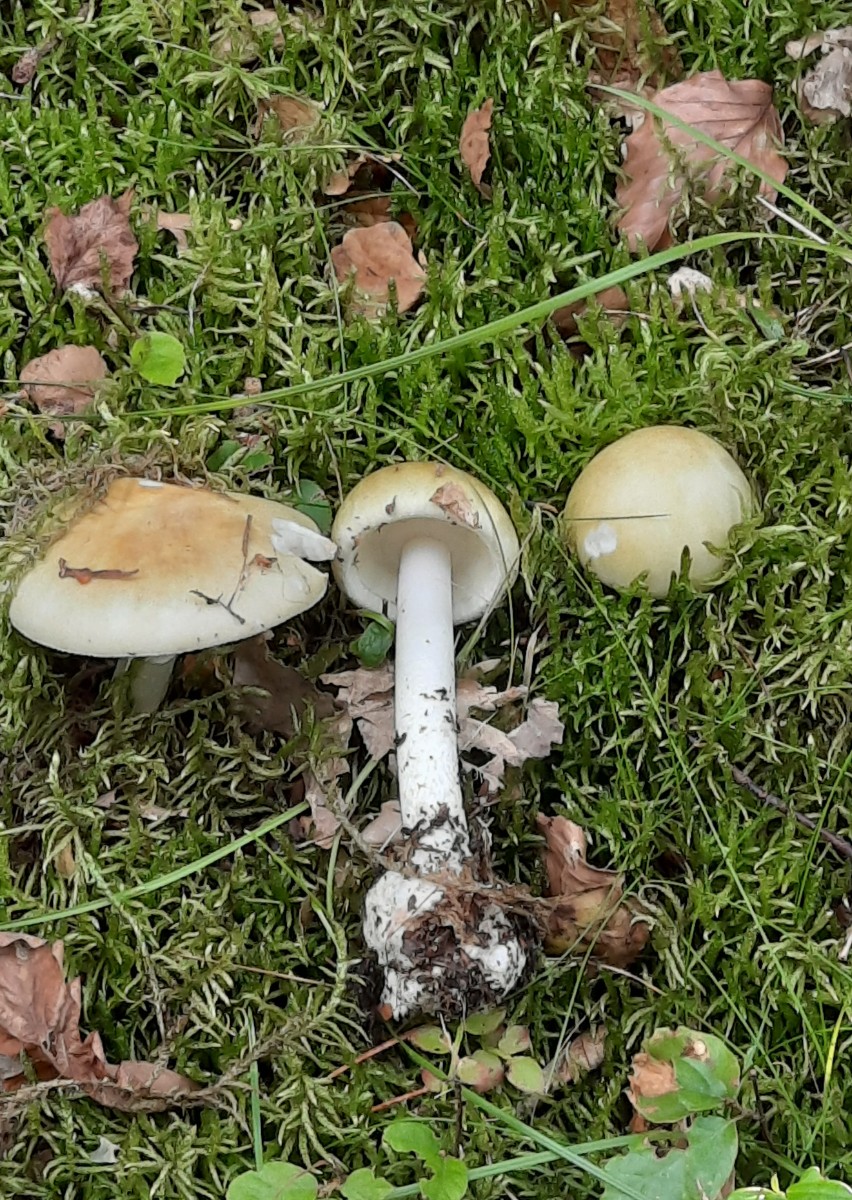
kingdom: Fungi
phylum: Basidiomycota
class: Agaricomycetes
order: Agaricales
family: Amanitaceae
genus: Amanita
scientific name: Amanita phalloides
